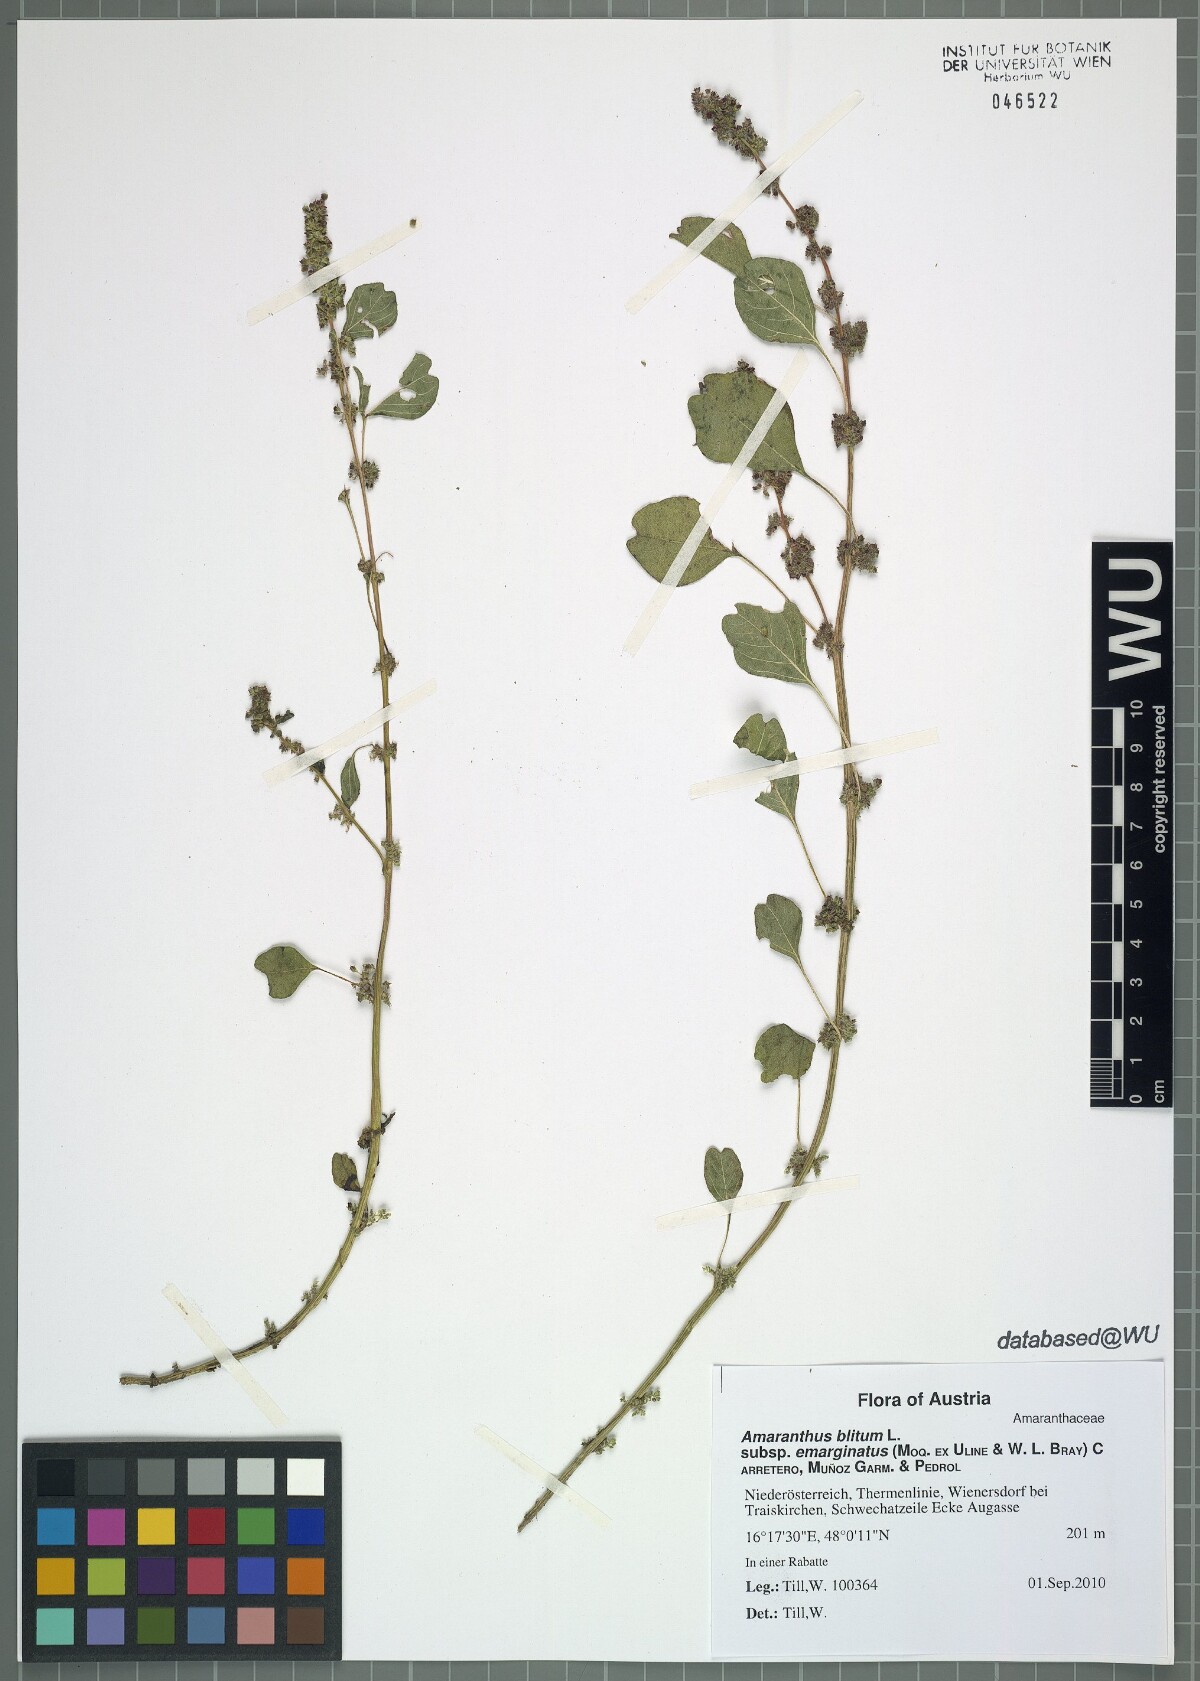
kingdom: Plantae
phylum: Tracheophyta
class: Magnoliopsida
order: Caryophyllales
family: Amaranthaceae
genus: Amaranthus
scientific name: Amaranthus emarginatus
